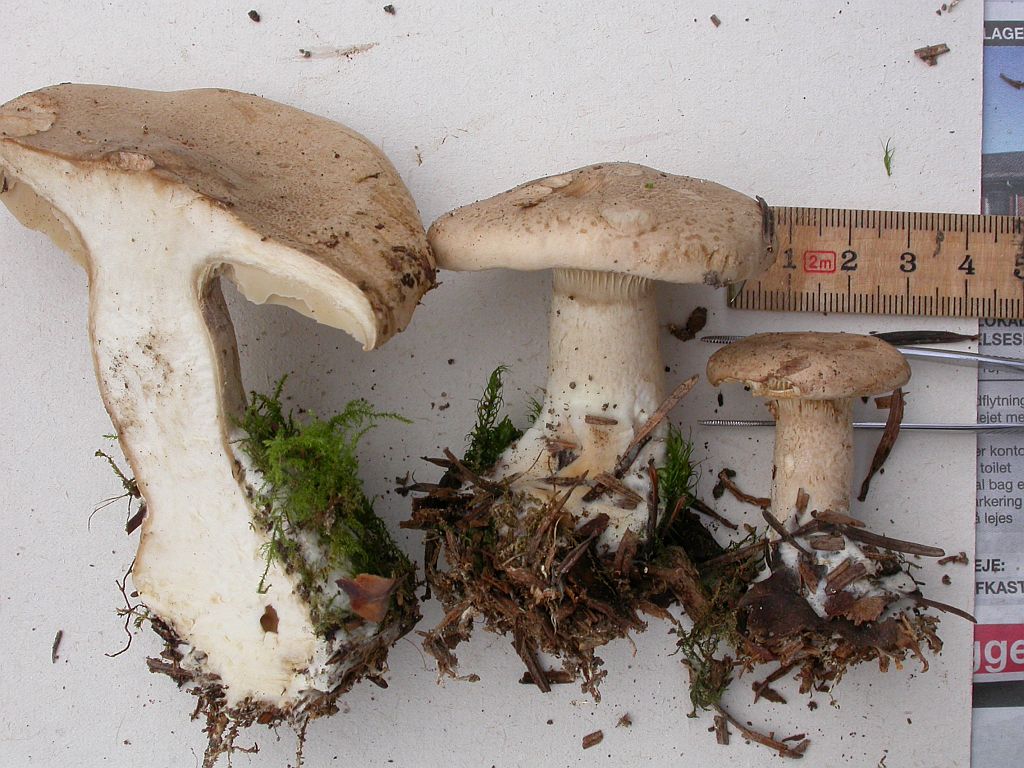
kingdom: Fungi
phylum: Basidiomycota
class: Agaricomycetes
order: Agaricales
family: Pseudoclitocybaceae
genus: Clitopaxillus
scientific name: Clitopaxillus fibulatus
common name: bestøvlet tragthat
